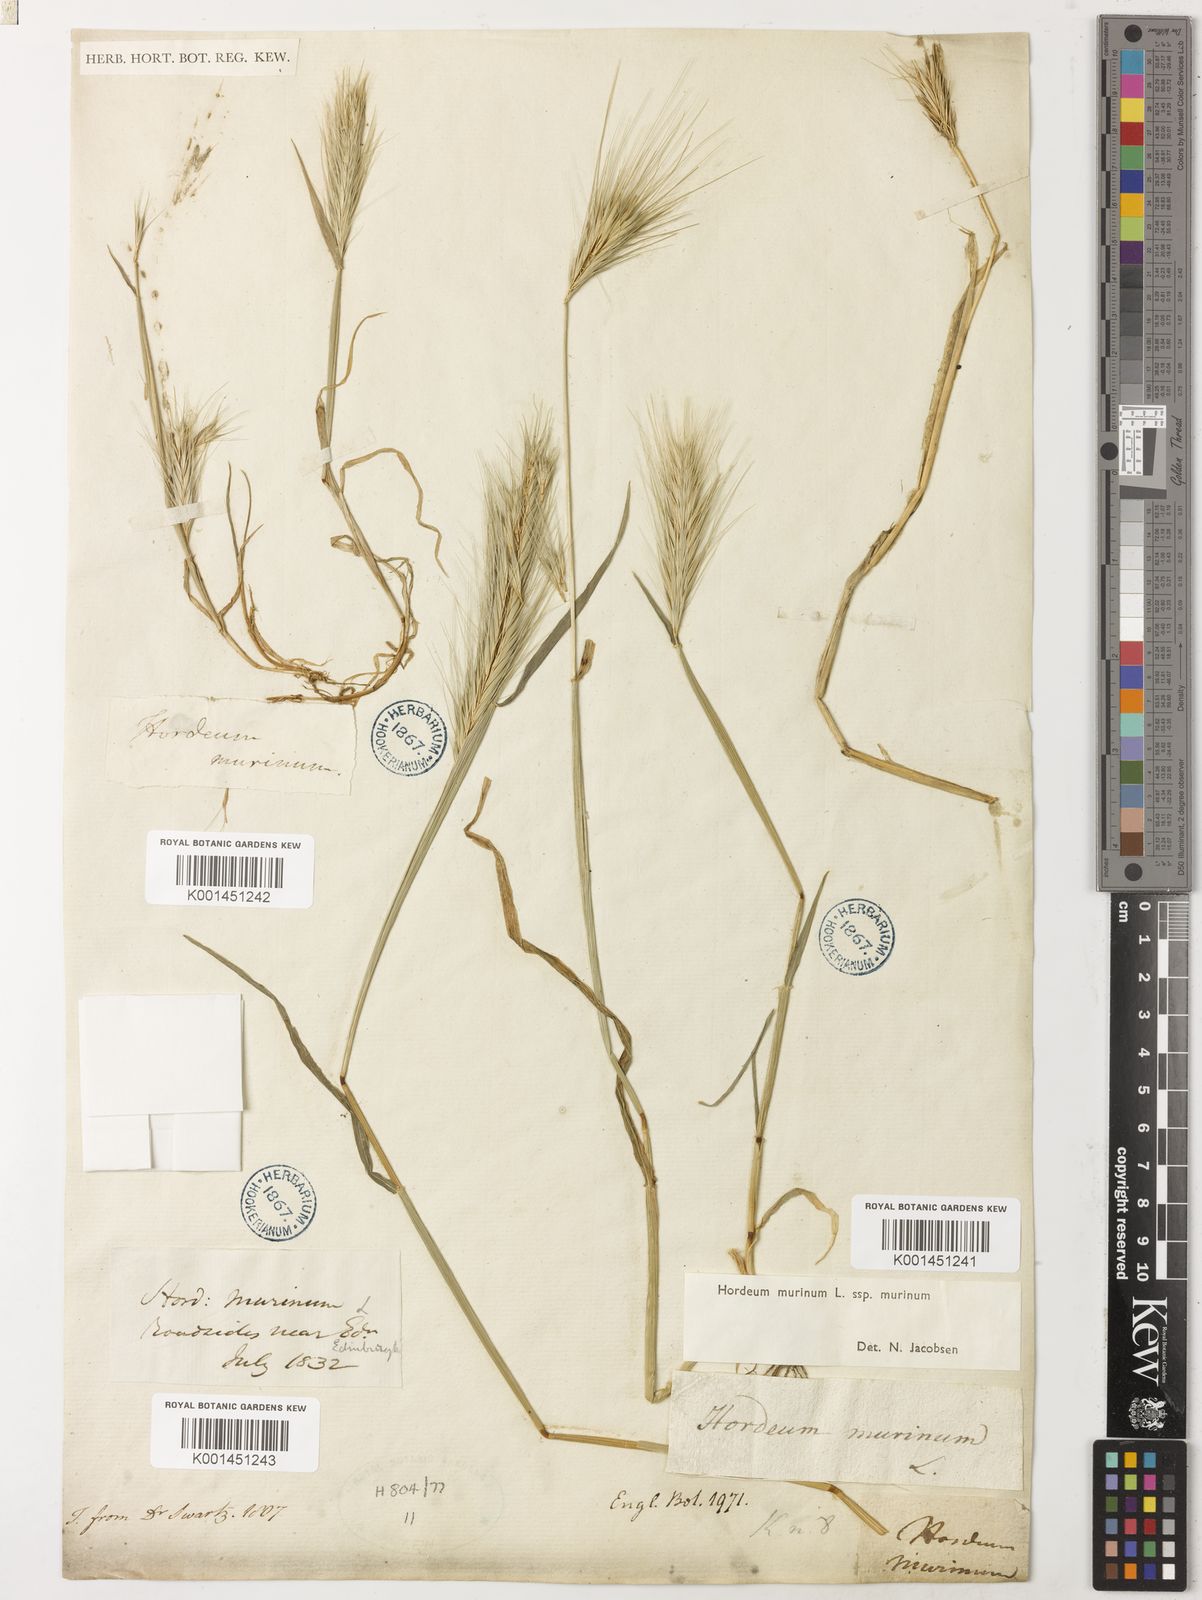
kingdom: Plantae
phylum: Tracheophyta
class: Liliopsida
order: Poales
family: Poaceae
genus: Hordeum
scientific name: Hordeum murinum
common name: Wall barley
